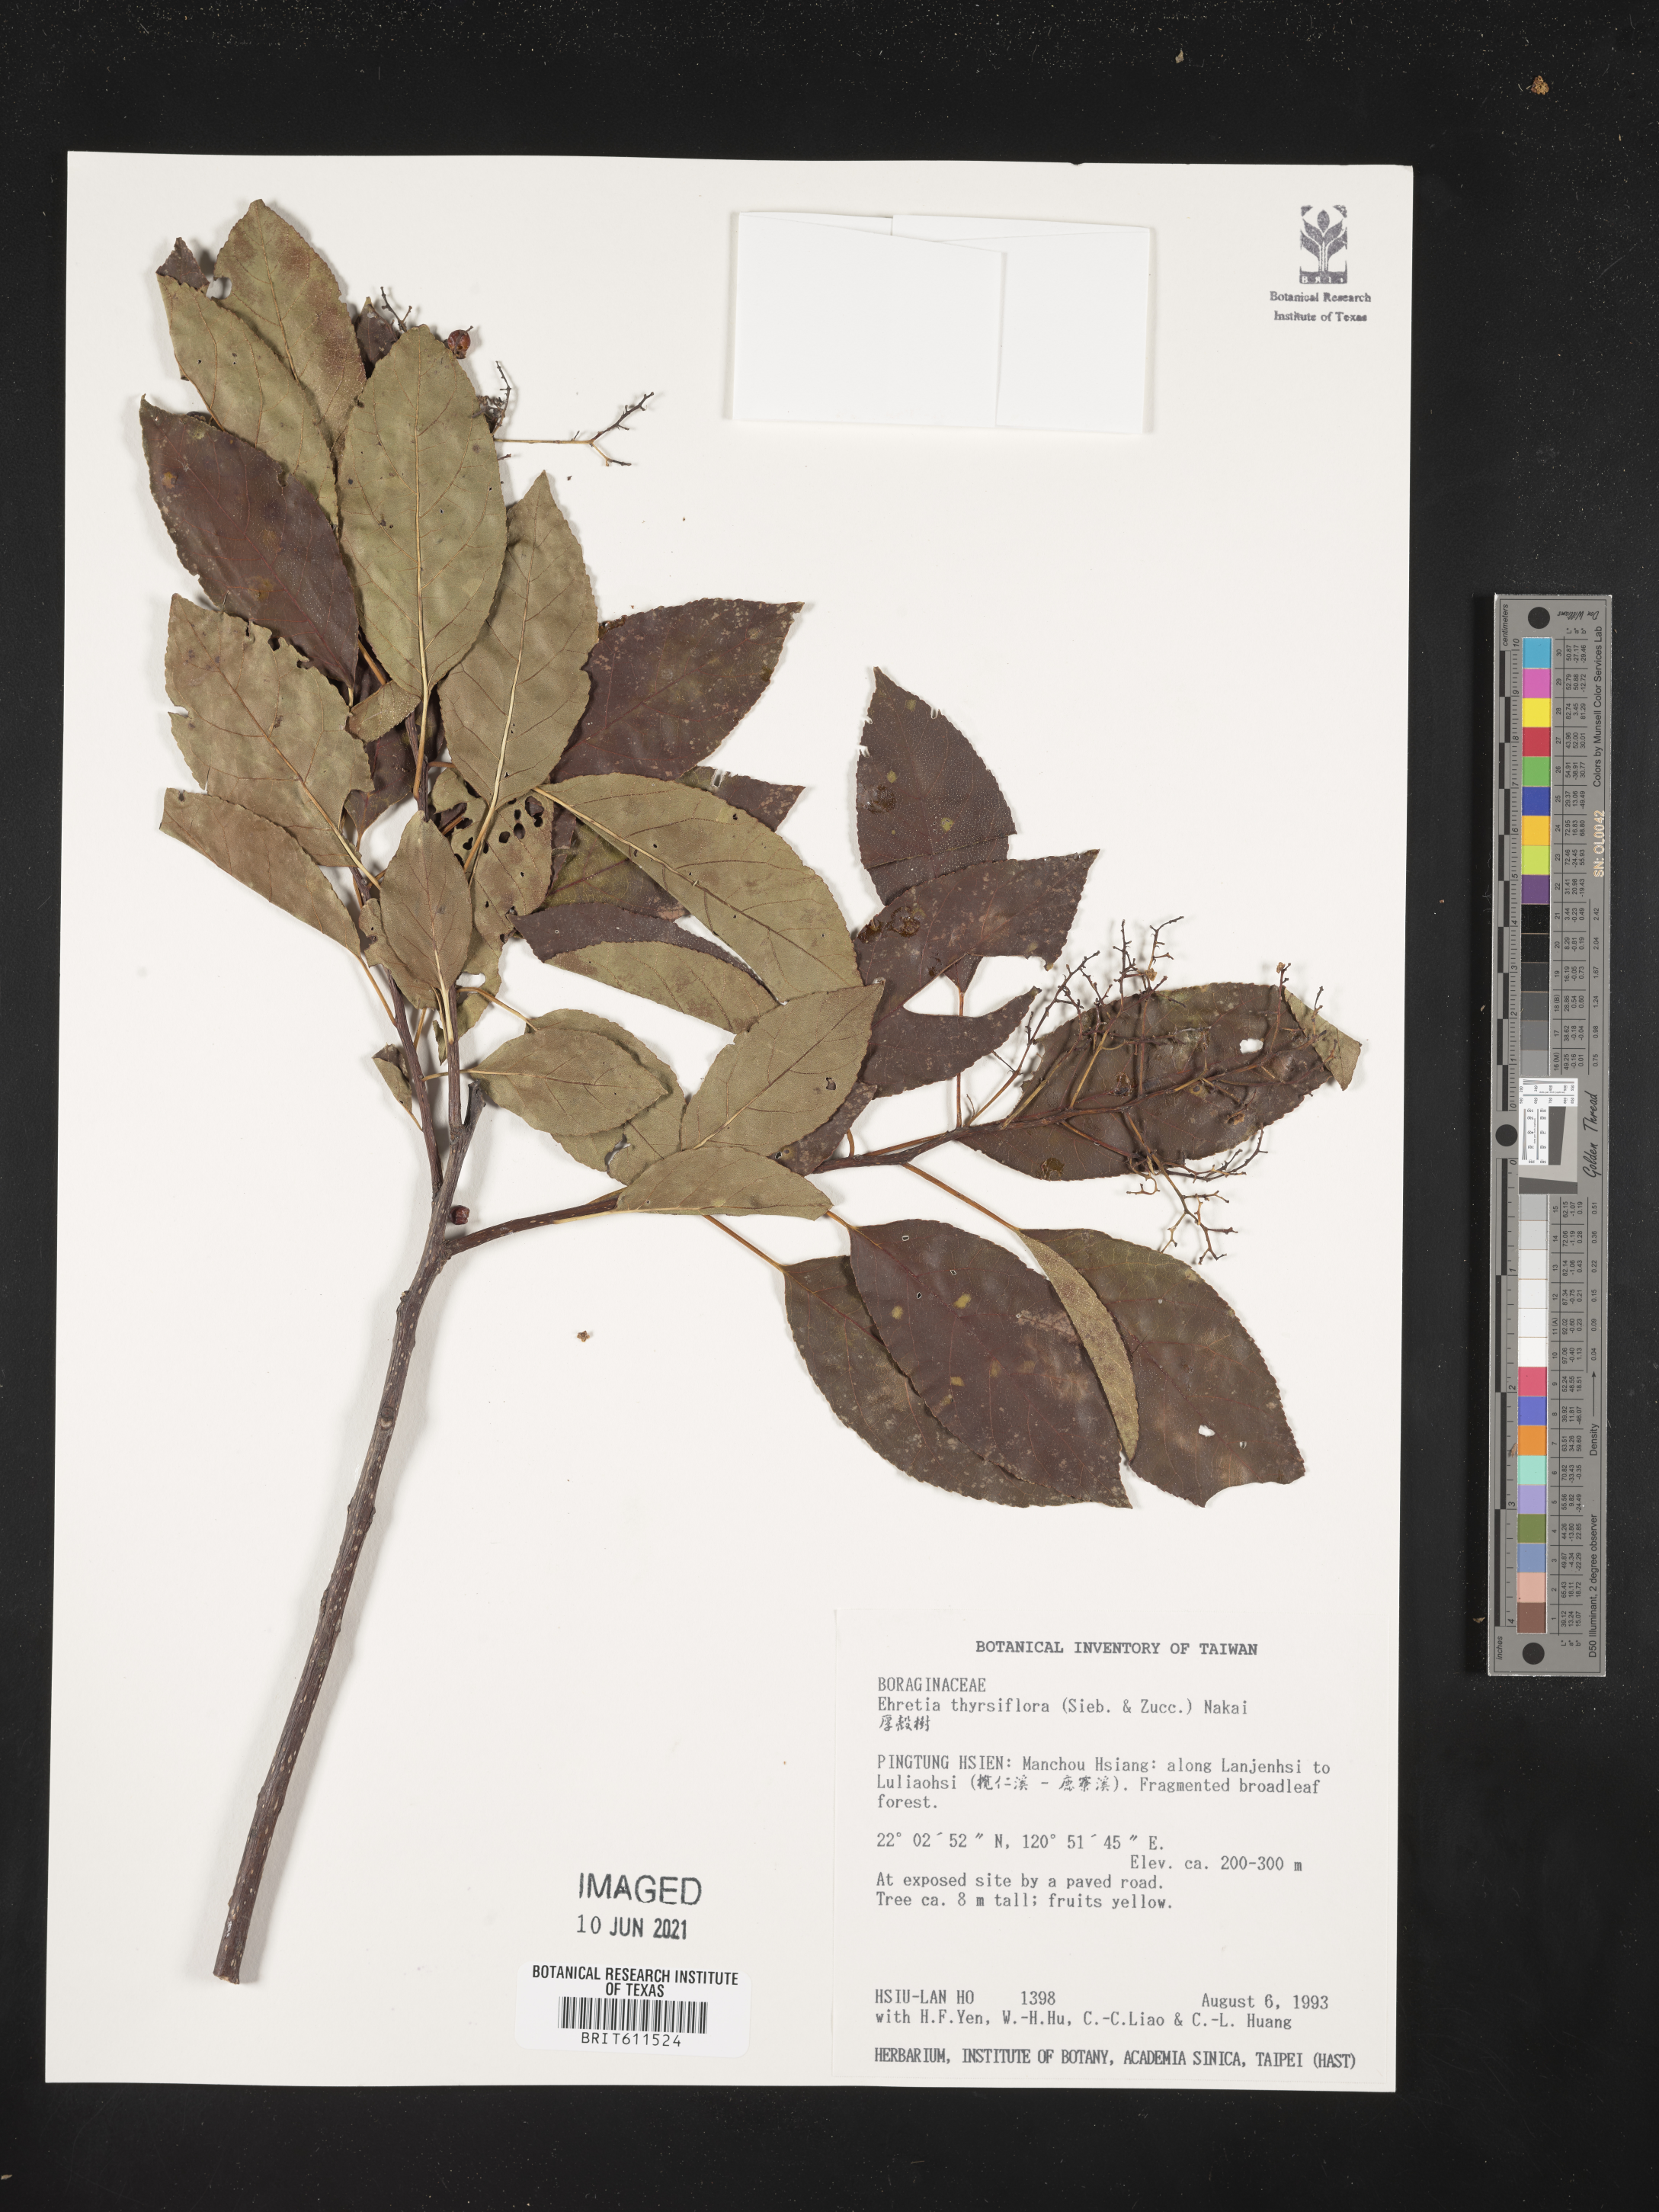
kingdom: Plantae
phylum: Tracheophyta
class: Magnoliopsida
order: Boraginales
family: Ehretiaceae
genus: Ehretia
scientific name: Ehretia acuminata
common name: Kodo wood
